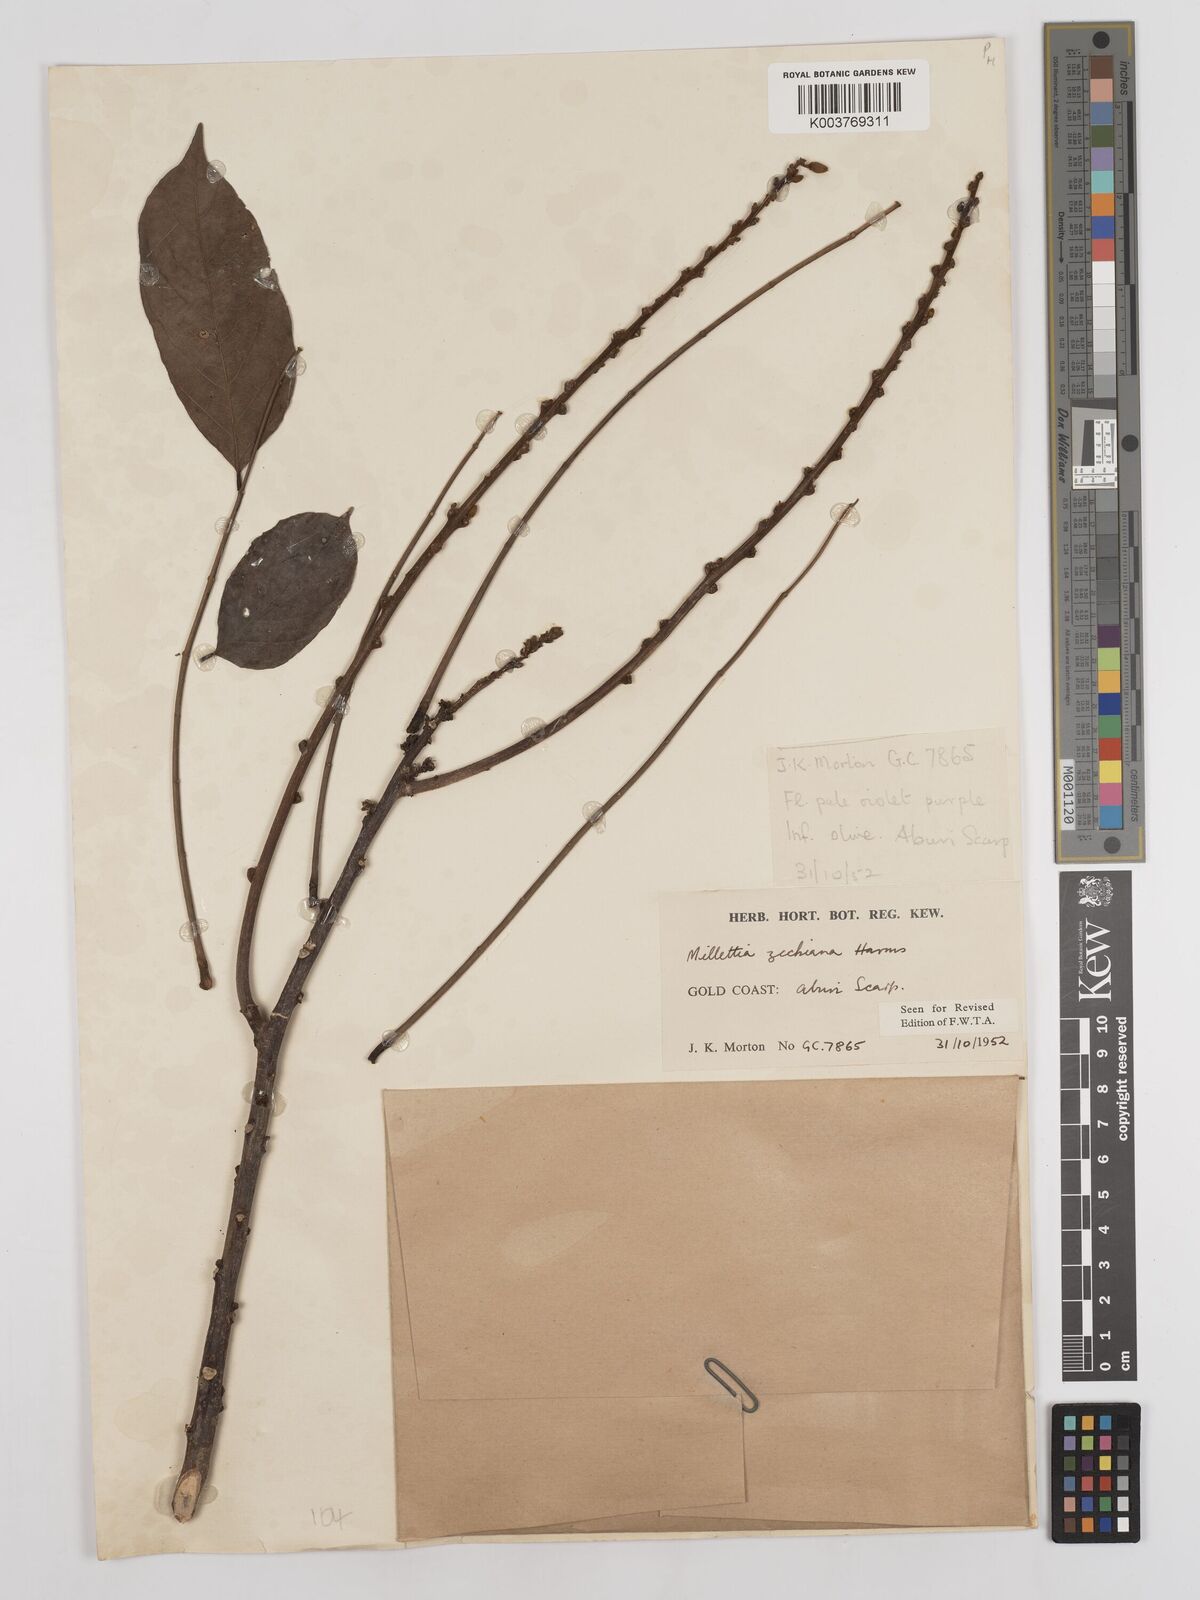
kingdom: Plantae
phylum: Tracheophyta
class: Magnoliopsida
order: Fabales
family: Fabaceae
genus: Millettia
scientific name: Millettia zechiana
